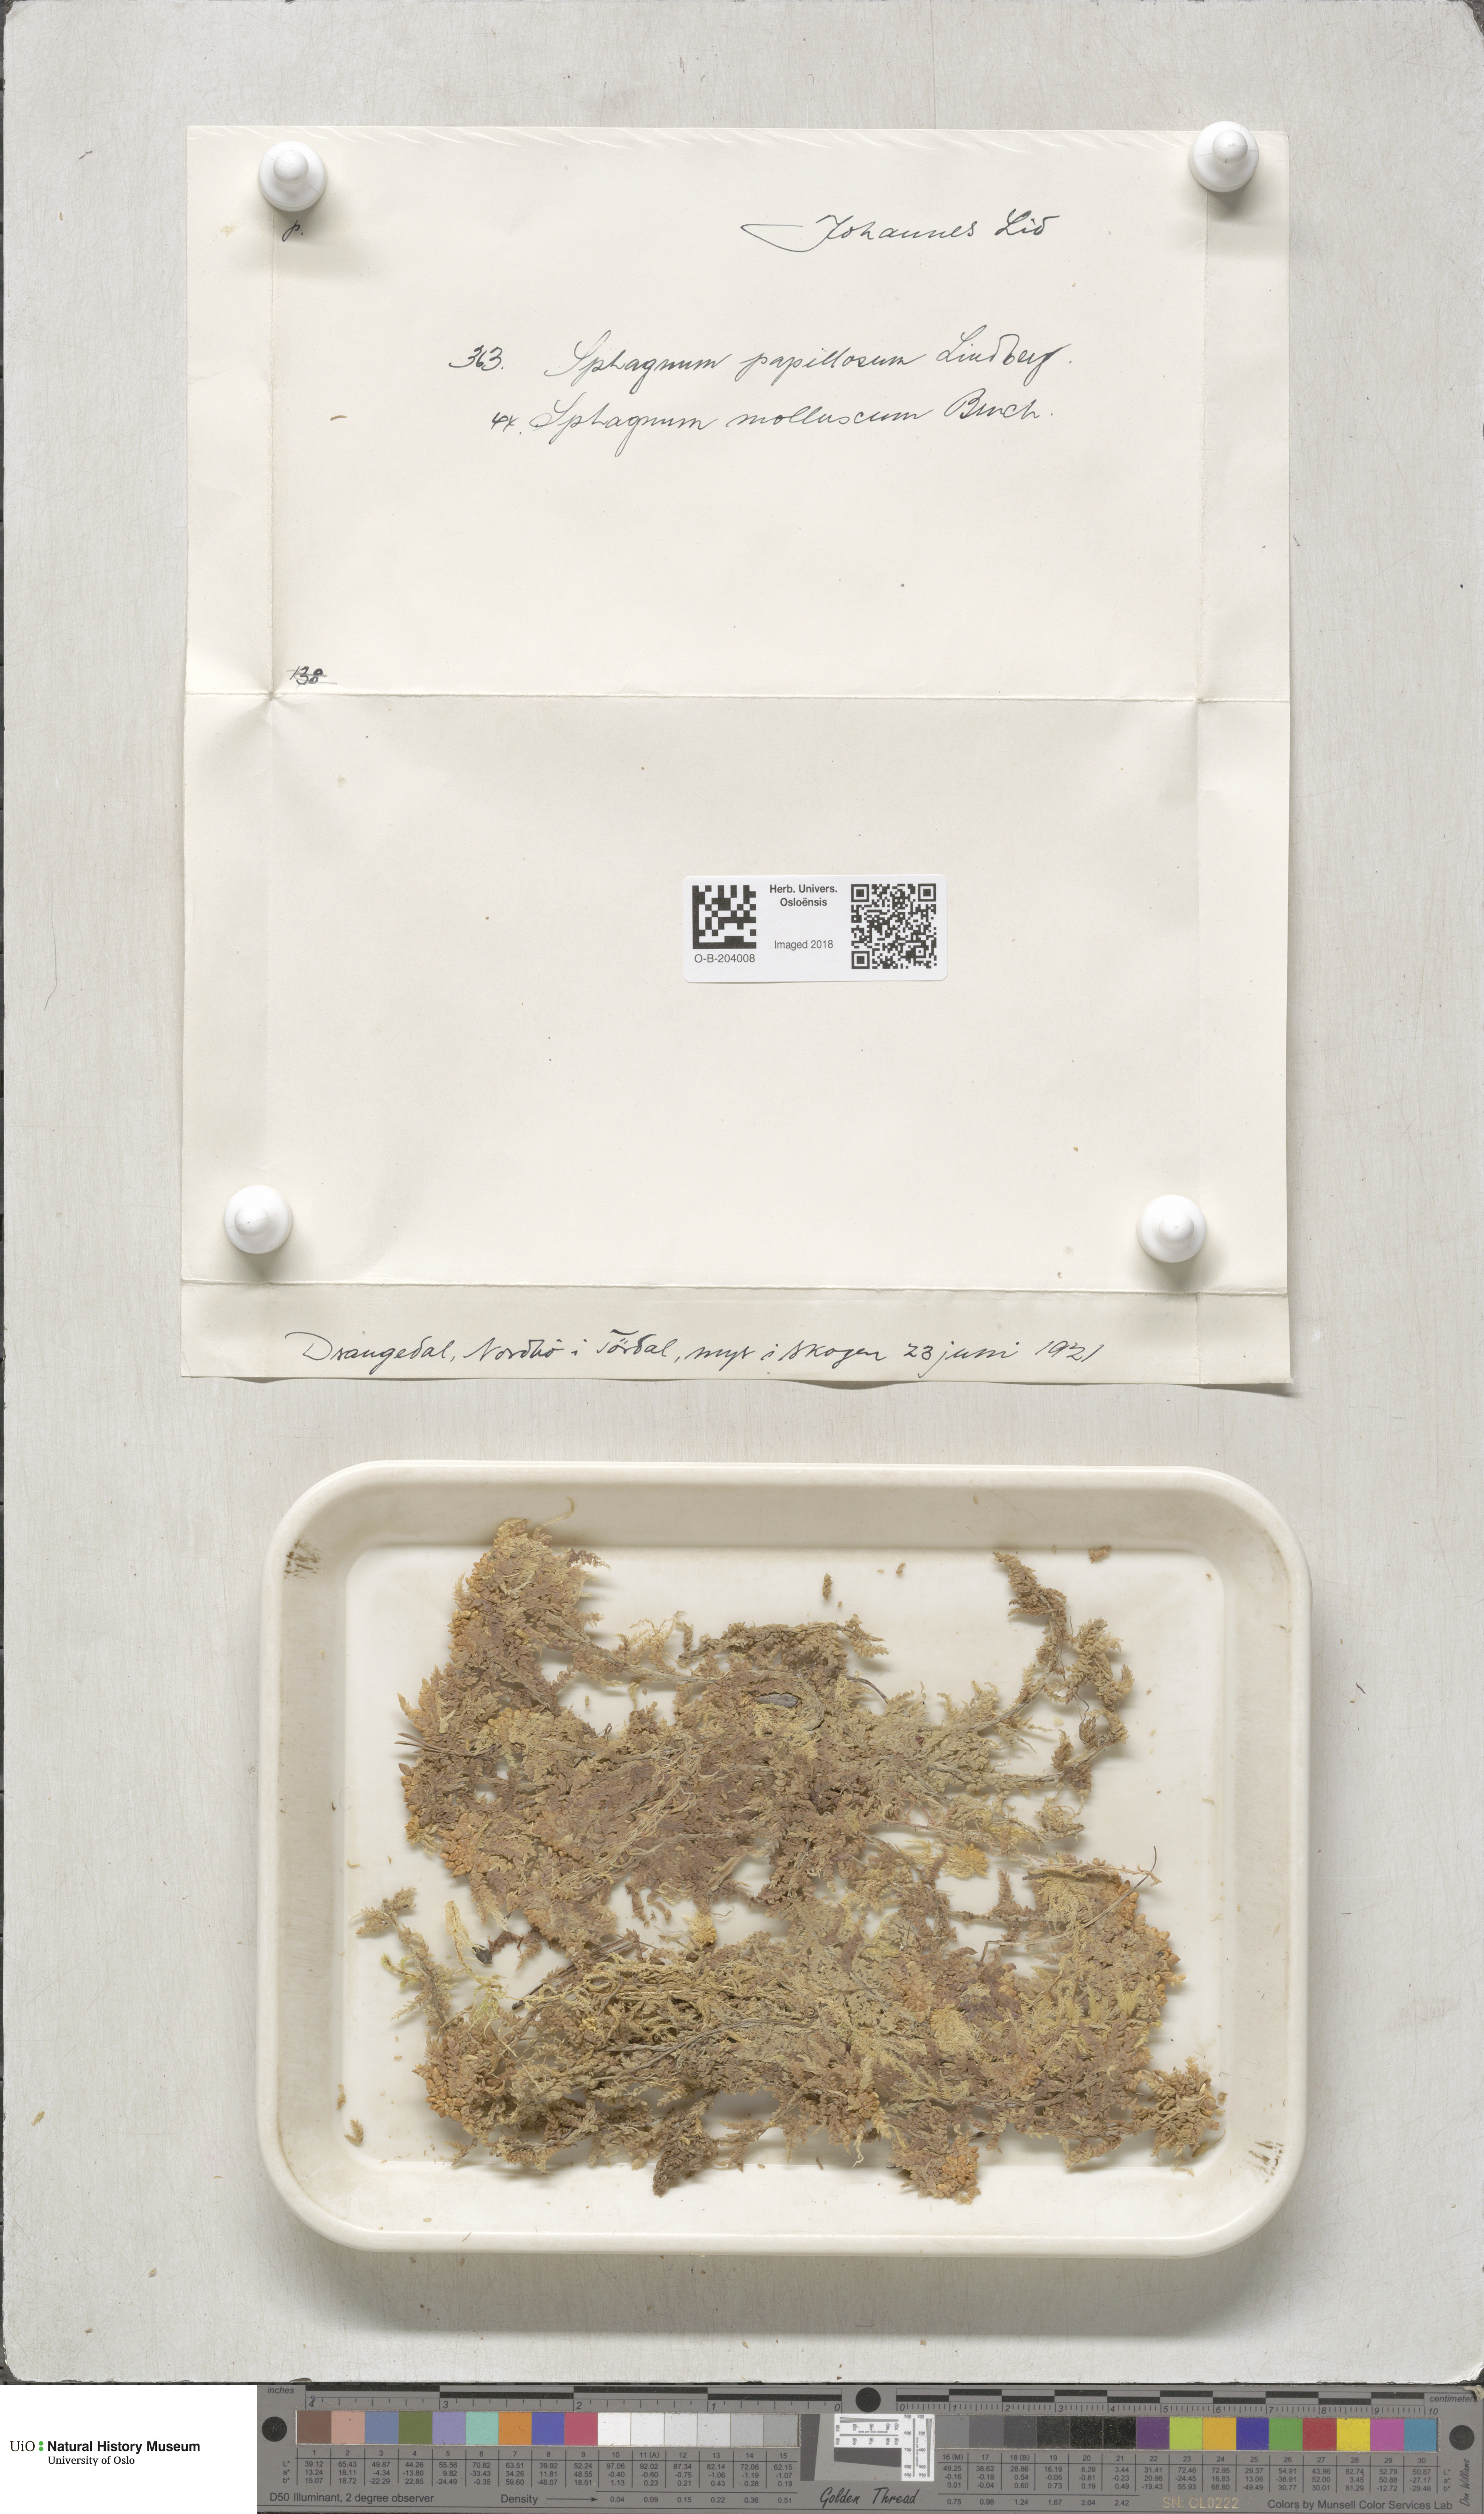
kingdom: Plantae
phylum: Bryophyta
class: Sphagnopsida
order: Sphagnales
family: Sphagnaceae
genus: Sphagnum
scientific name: Sphagnum papillosum
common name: Papillose peat moss
